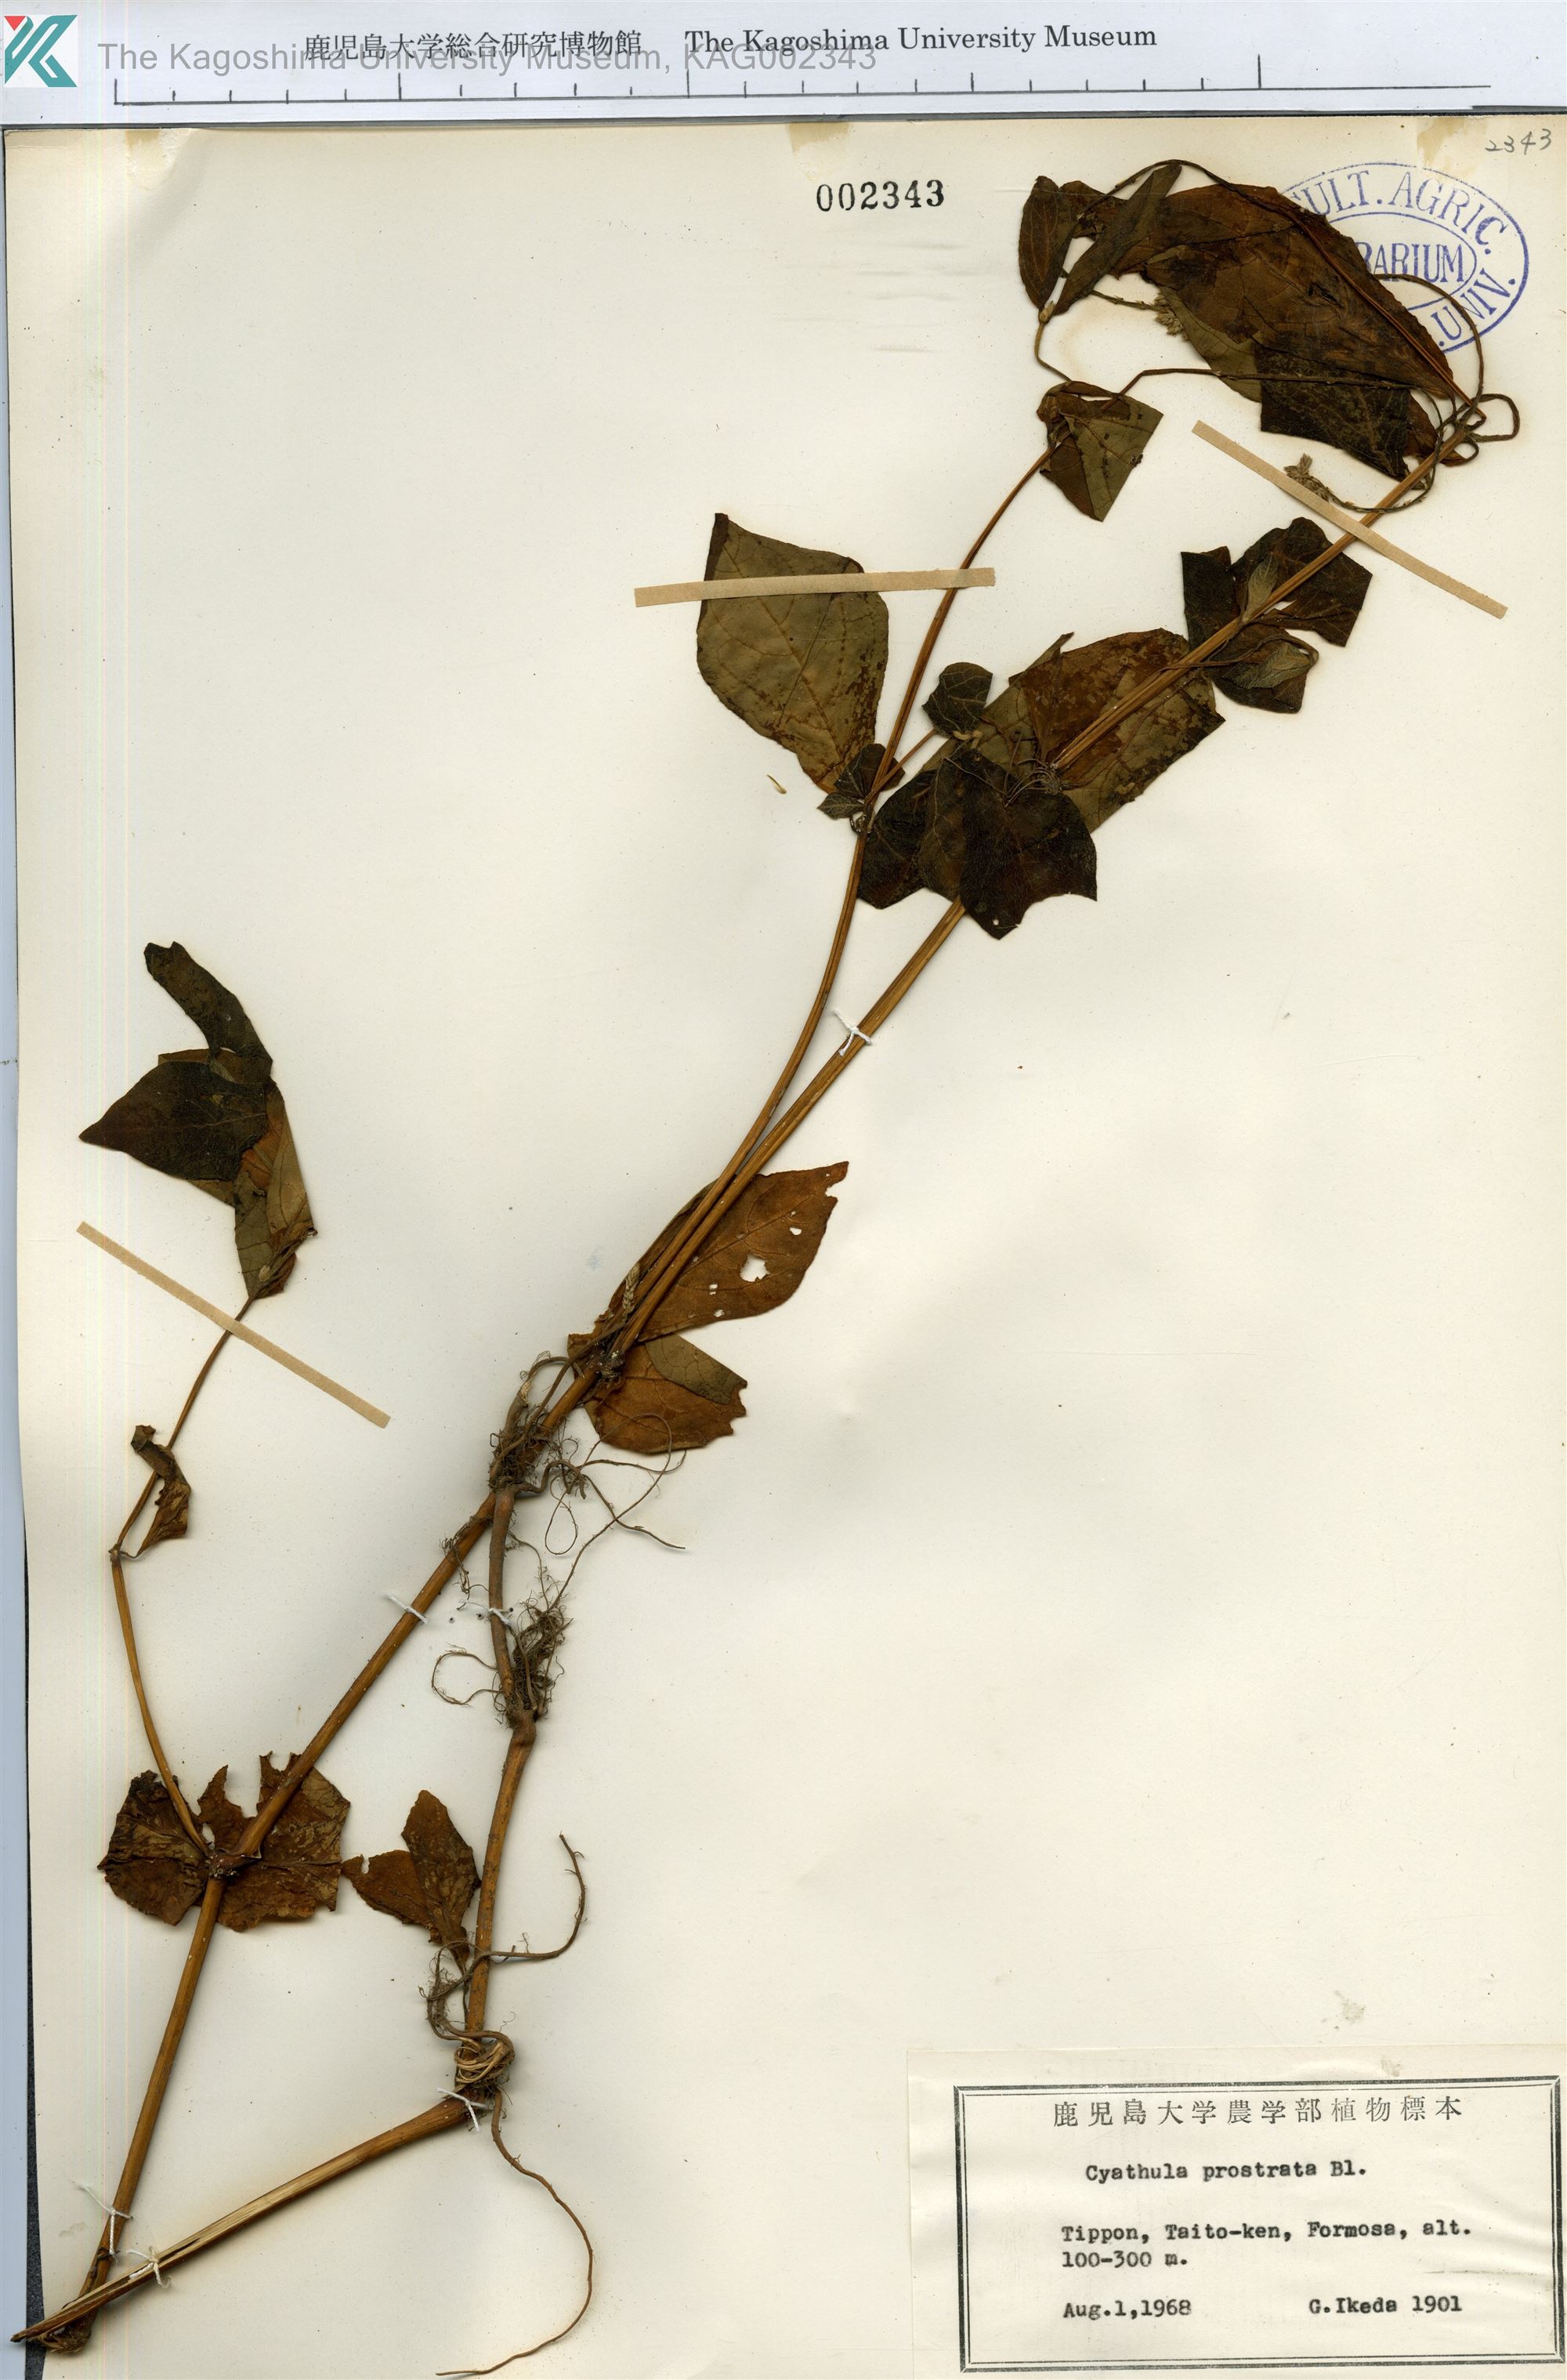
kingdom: Plantae
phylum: Tracheophyta
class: Magnoliopsida
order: Caryophyllales
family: Amaranthaceae
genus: Cyathula
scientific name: Cyathula prostrata
